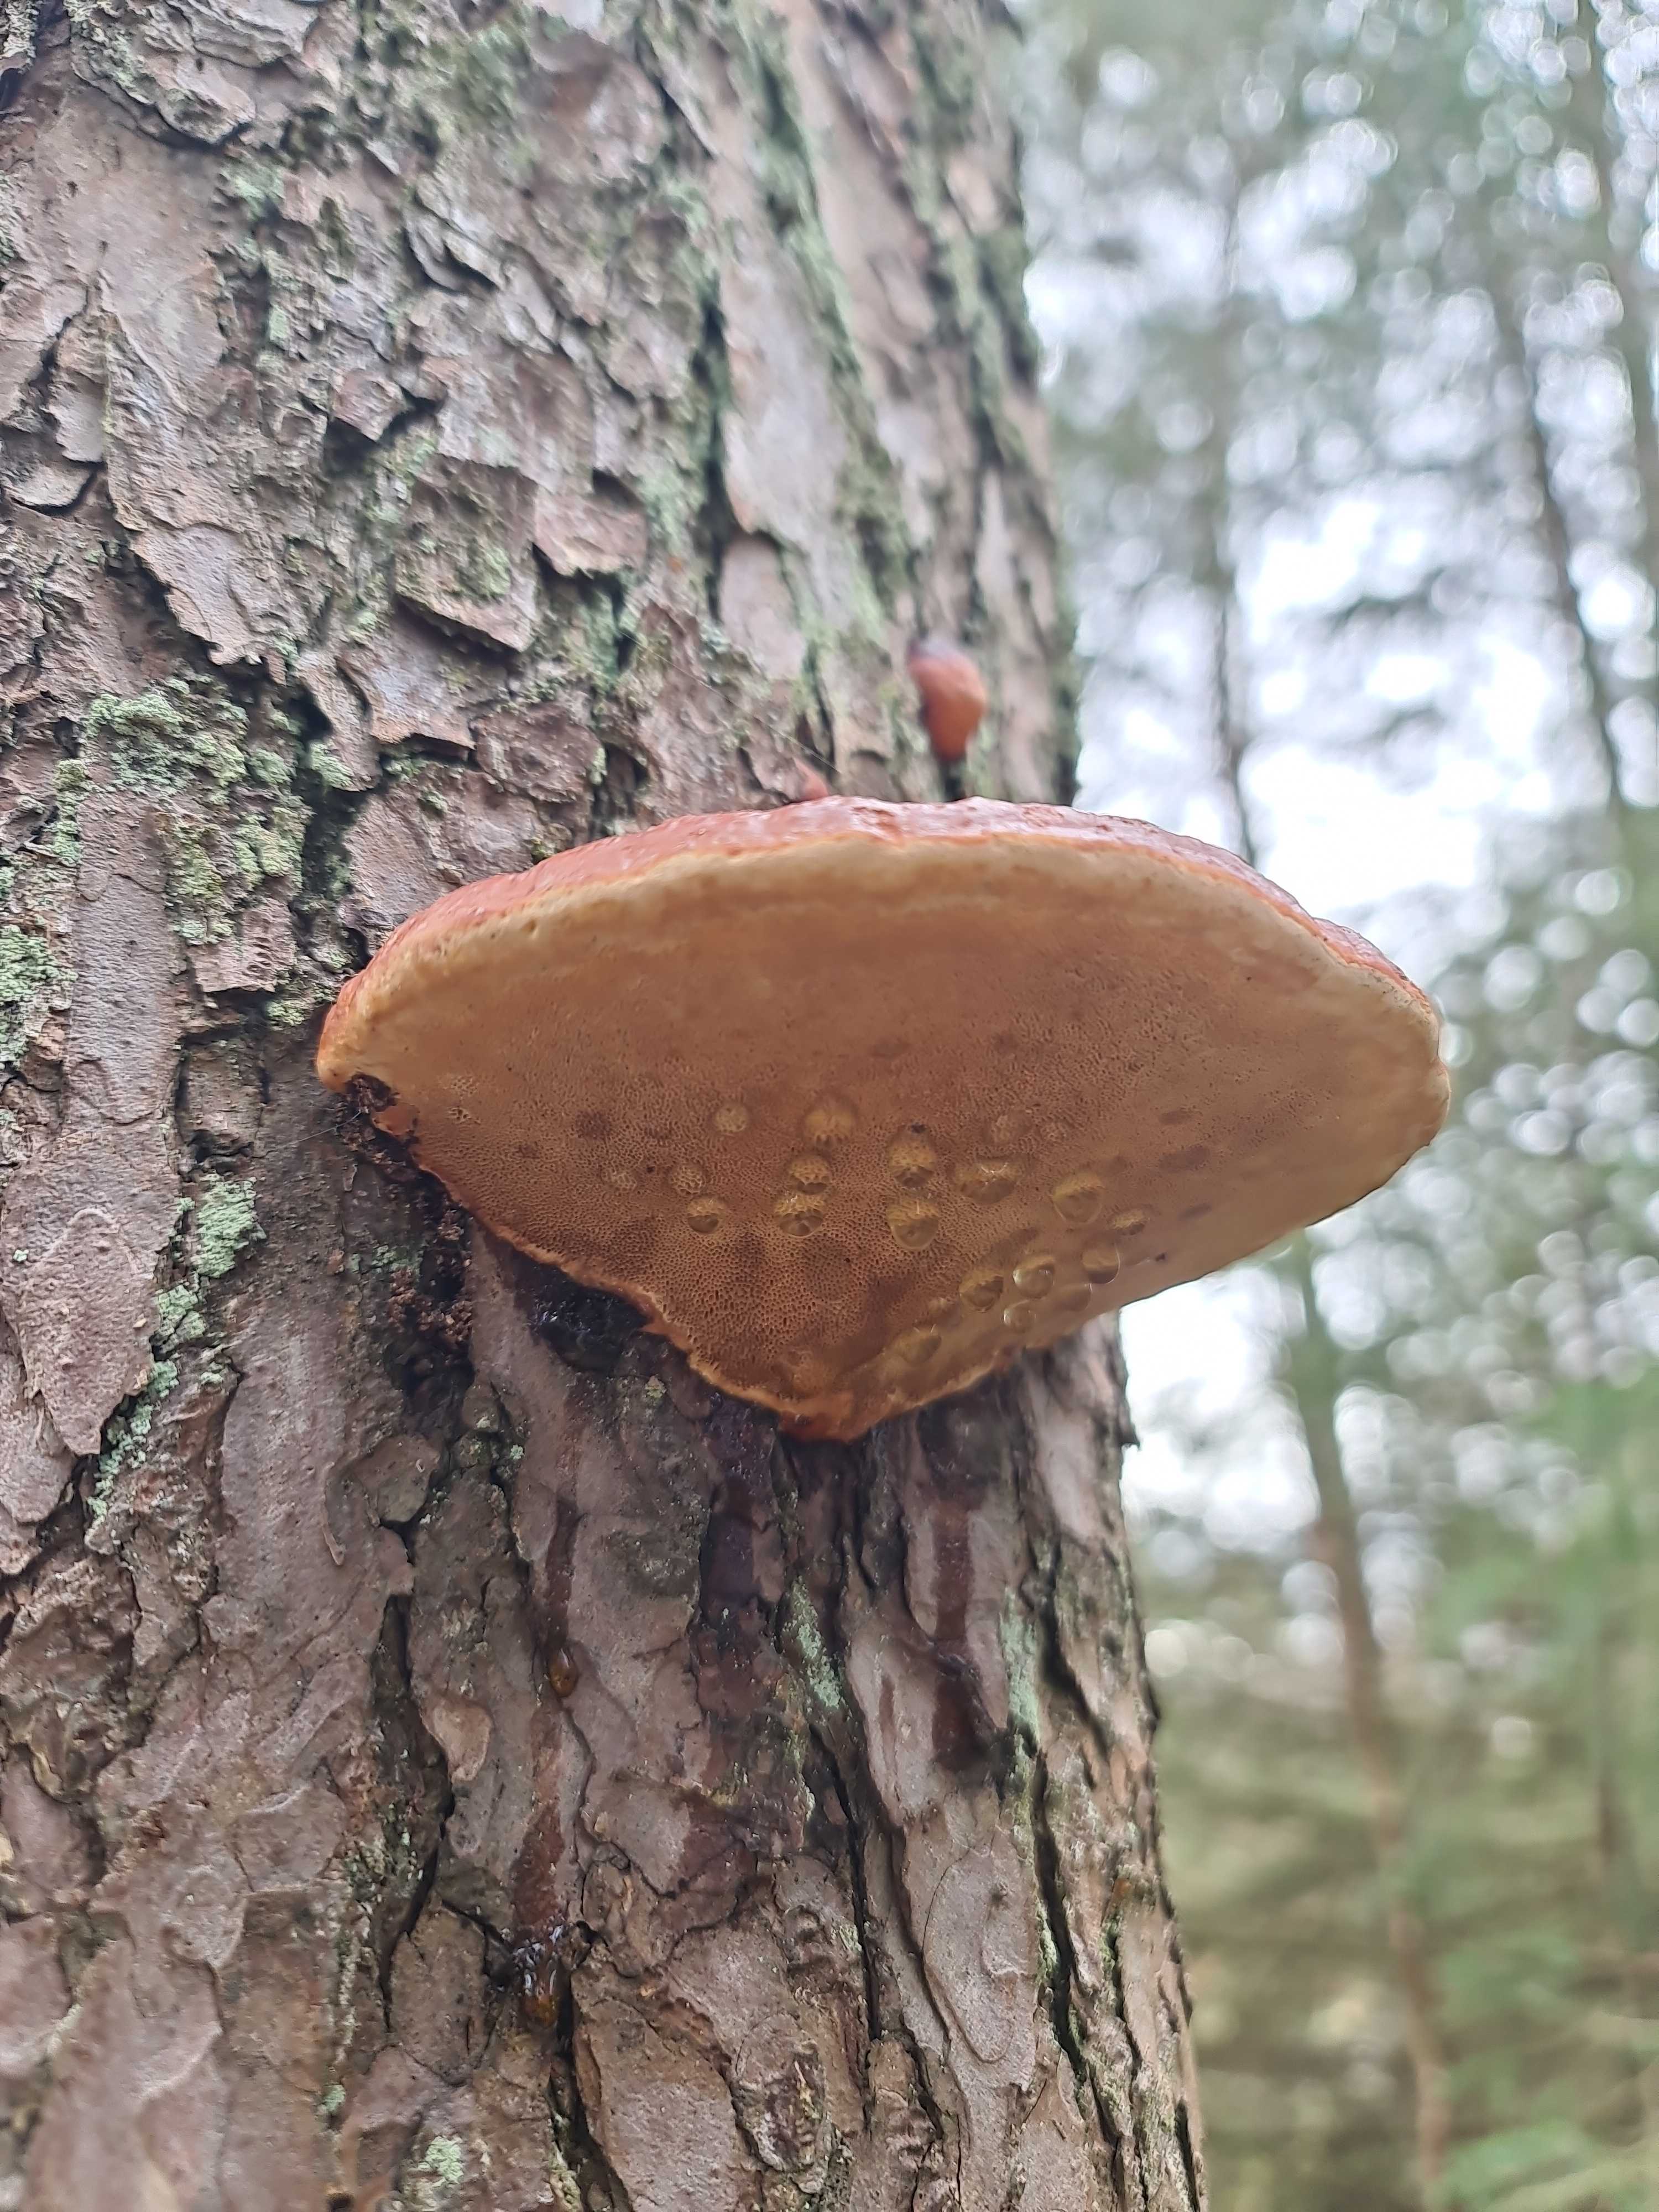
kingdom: Fungi
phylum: Basidiomycota
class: Agaricomycetes
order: Polyporales
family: Fomitopsidaceae
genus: Fomitopsis
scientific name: Fomitopsis pinicola
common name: randbæltet hovporesvamp
